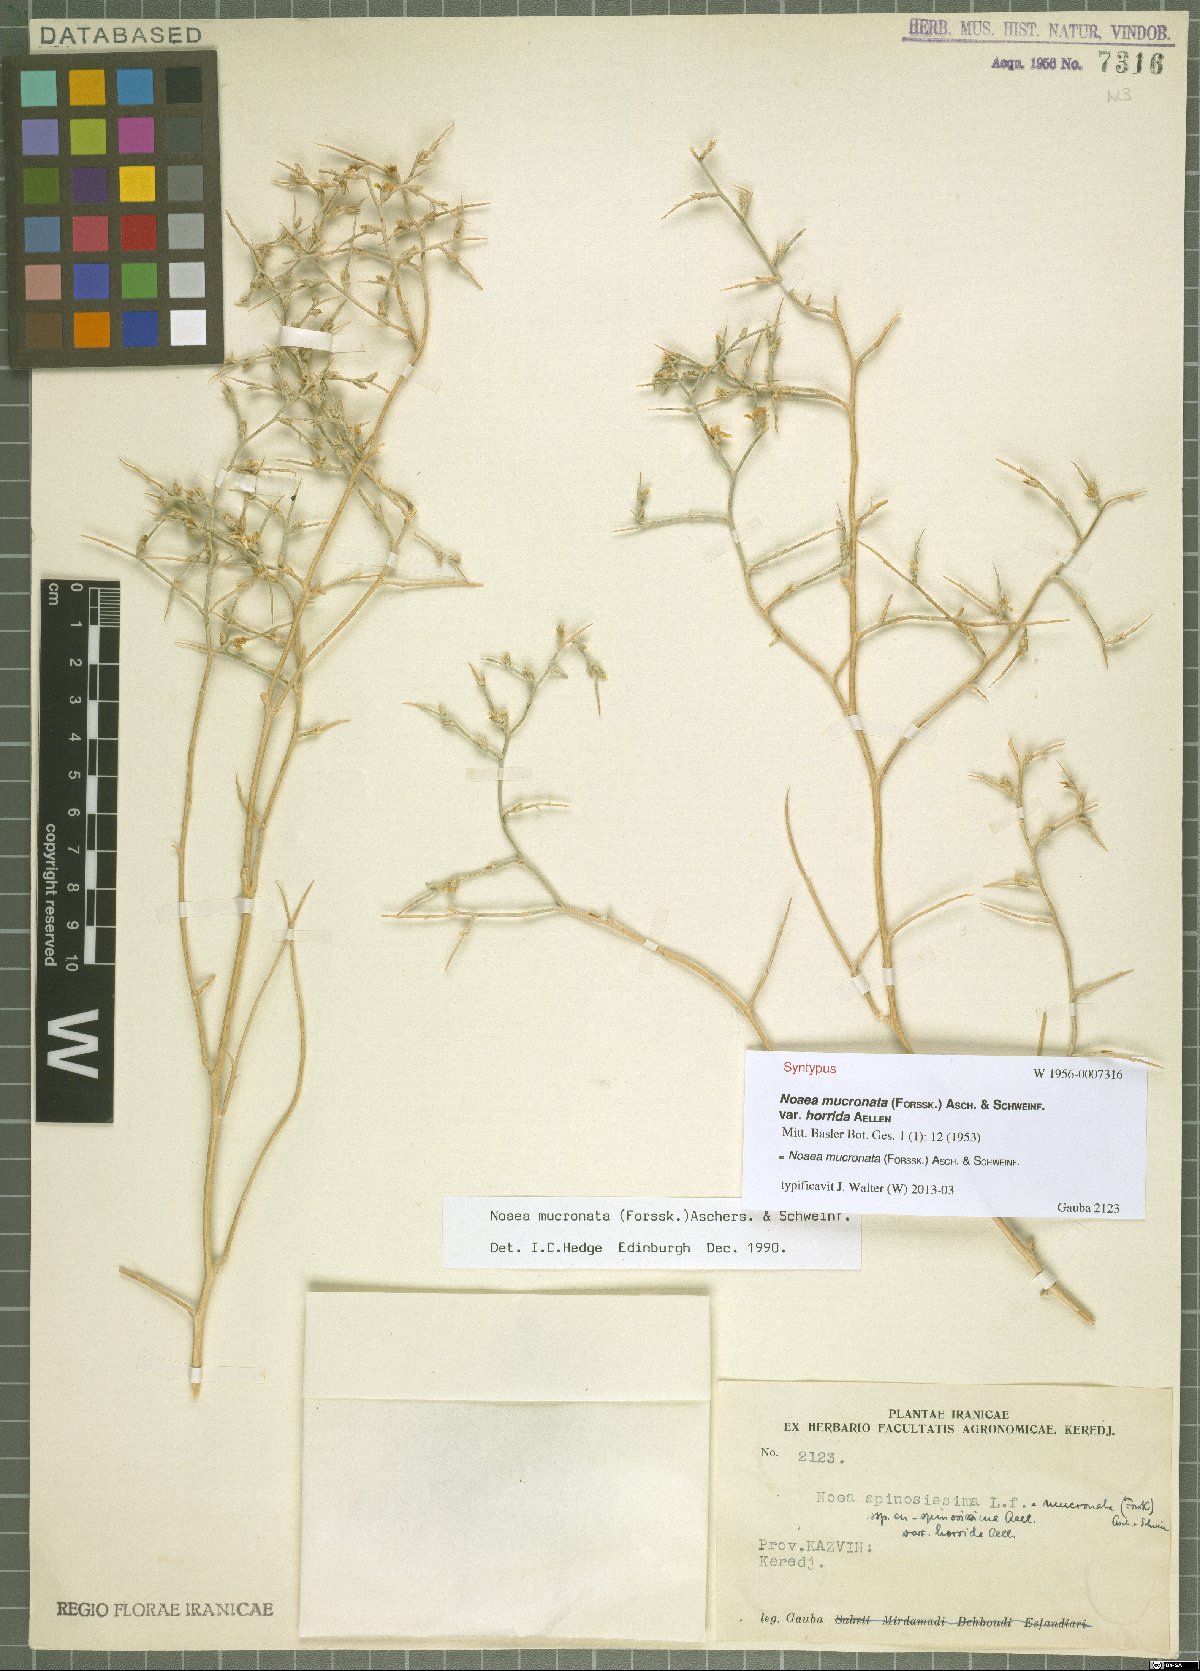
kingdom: Plantae
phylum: Tracheophyta
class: Magnoliopsida
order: Caryophyllales
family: Amaranthaceae
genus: Noaea
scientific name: Noaea mucronata
